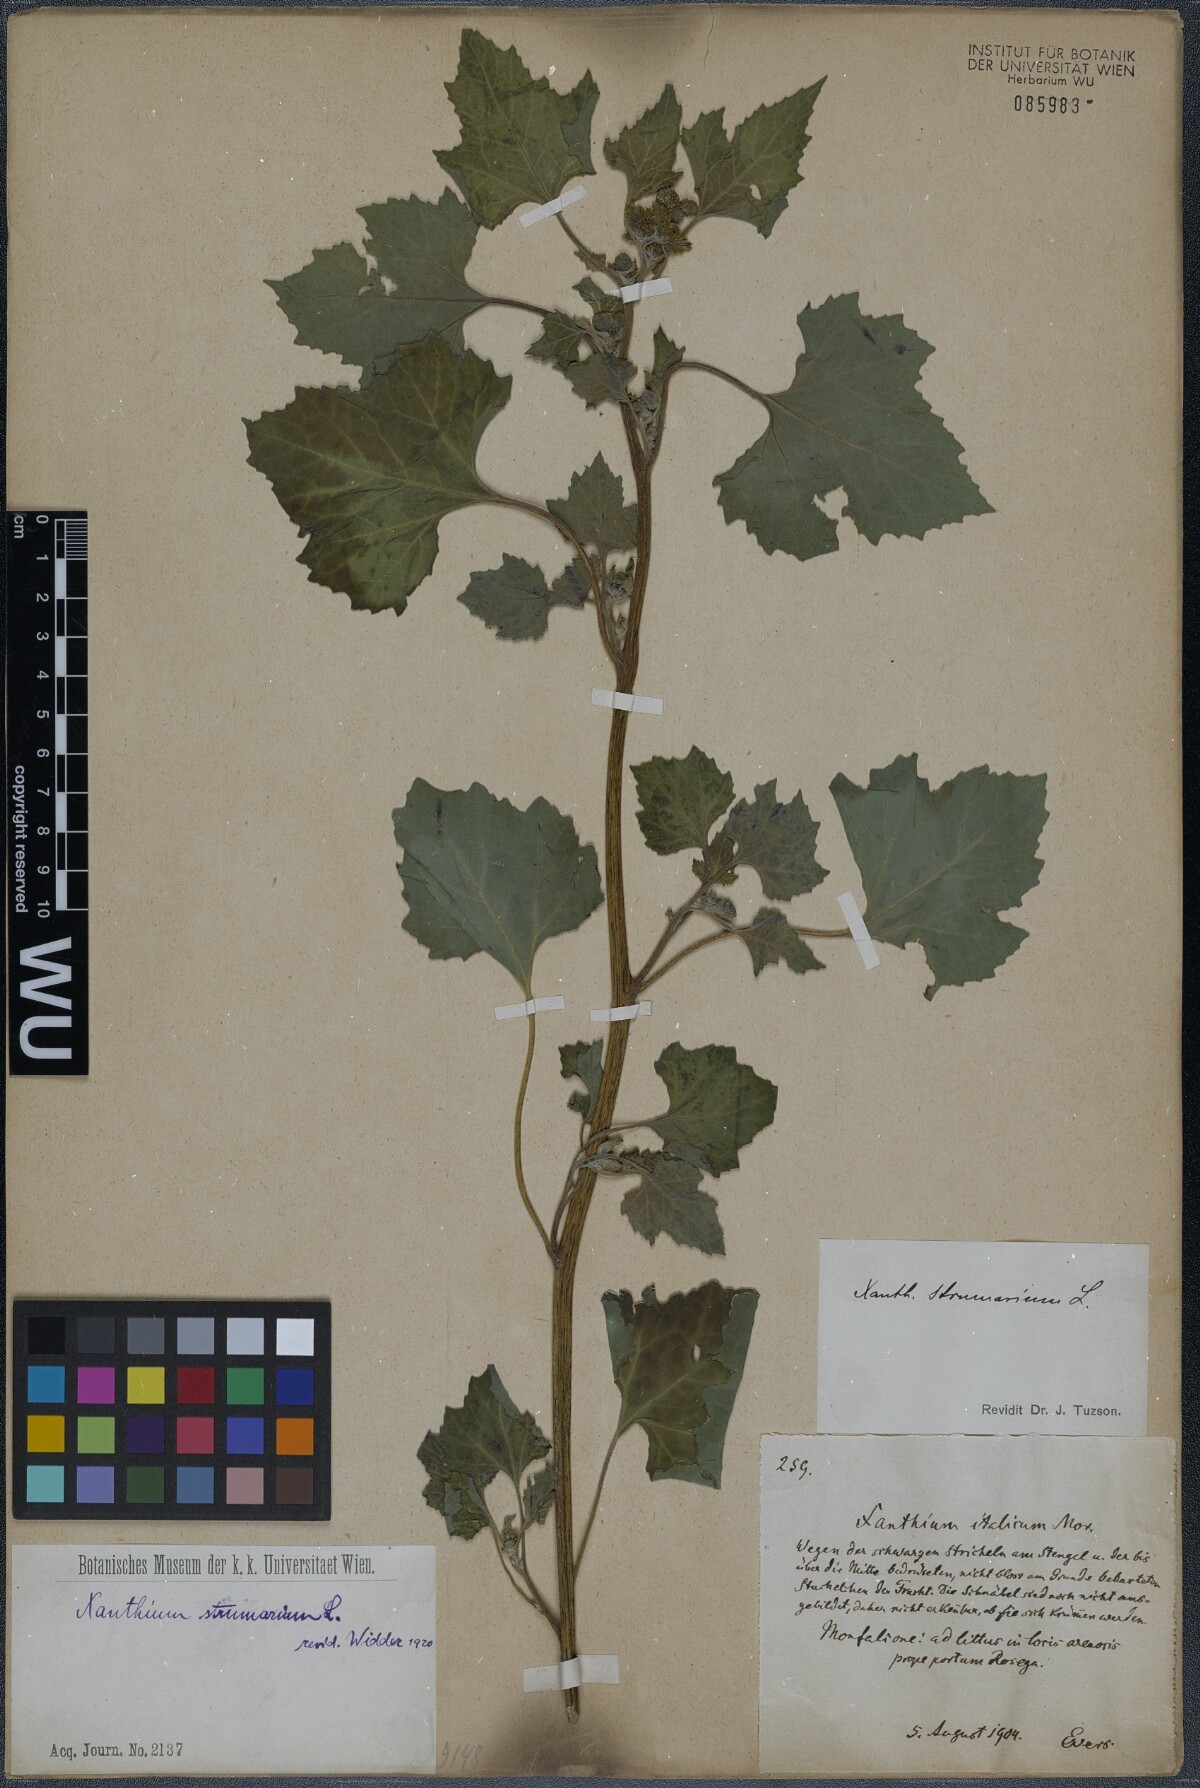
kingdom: Plantae
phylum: Tracheophyta
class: Magnoliopsida
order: Asterales
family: Asteraceae
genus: Xanthium
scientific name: Xanthium strumarium
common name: Rough cocklebur
